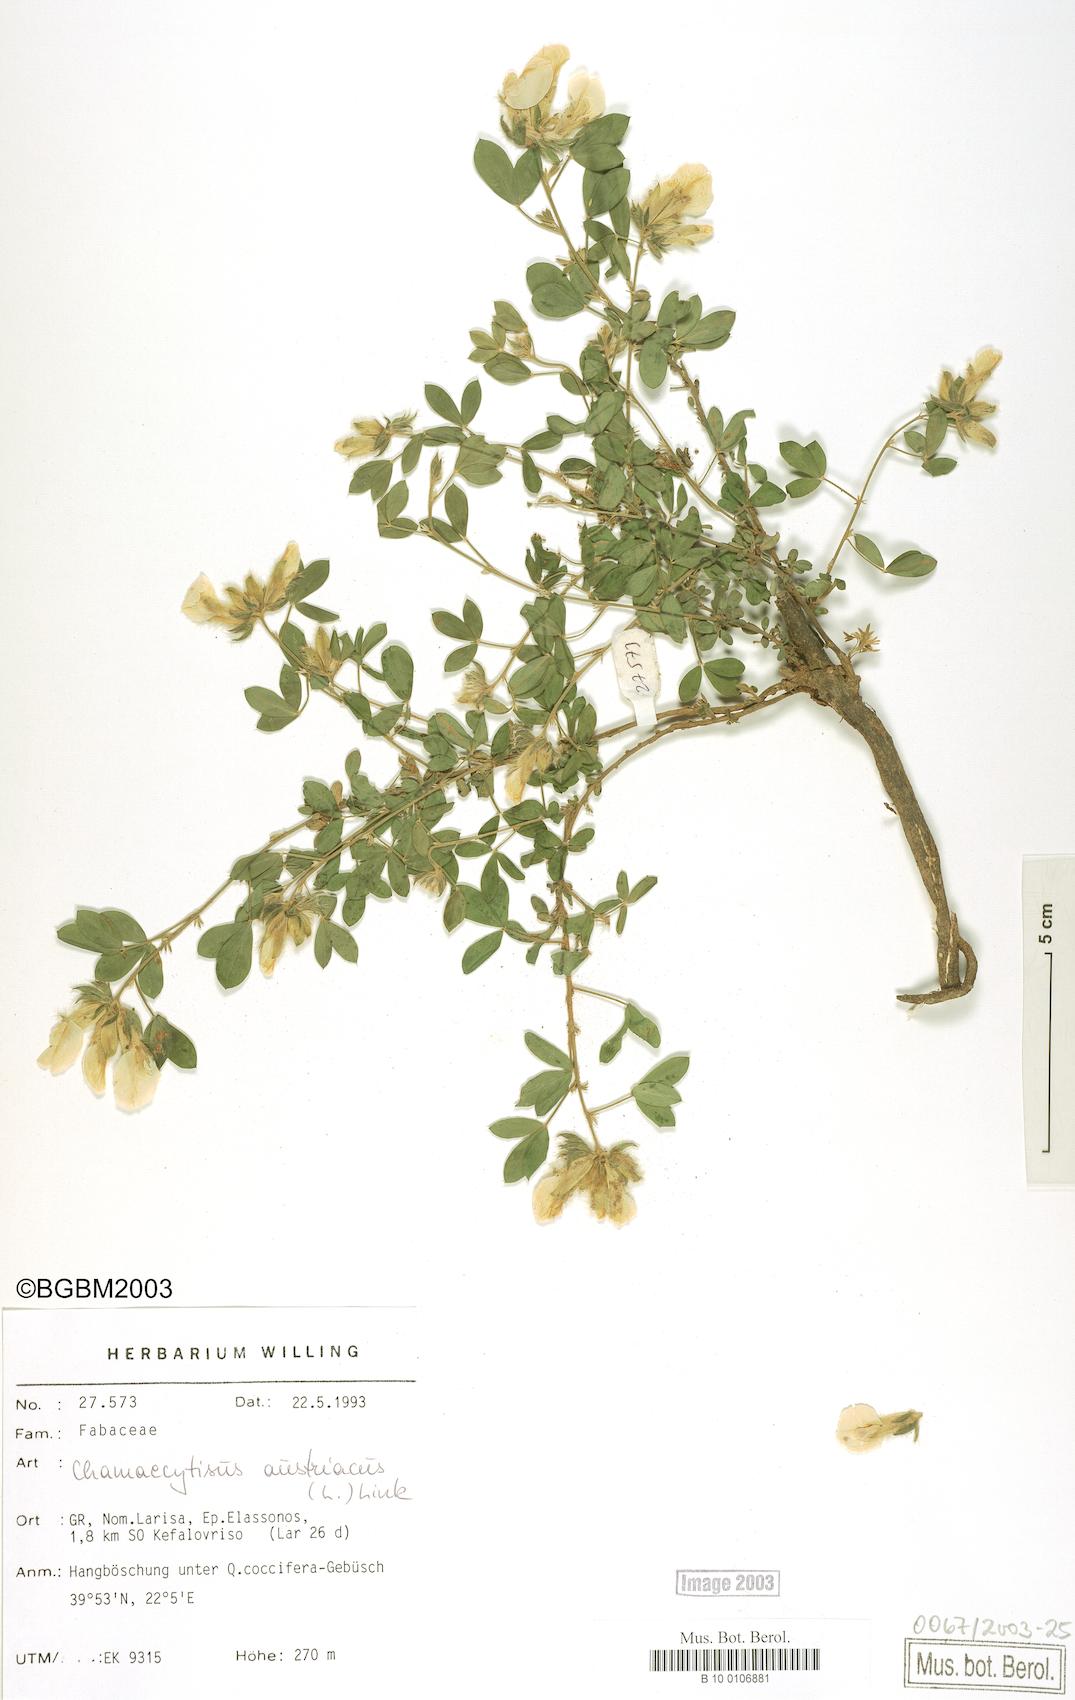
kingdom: Plantae
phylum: Tracheophyta
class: Magnoliopsida
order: Fabales
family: Fabaceae
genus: Chamaecytisus
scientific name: Chamaecytisus austriacus
